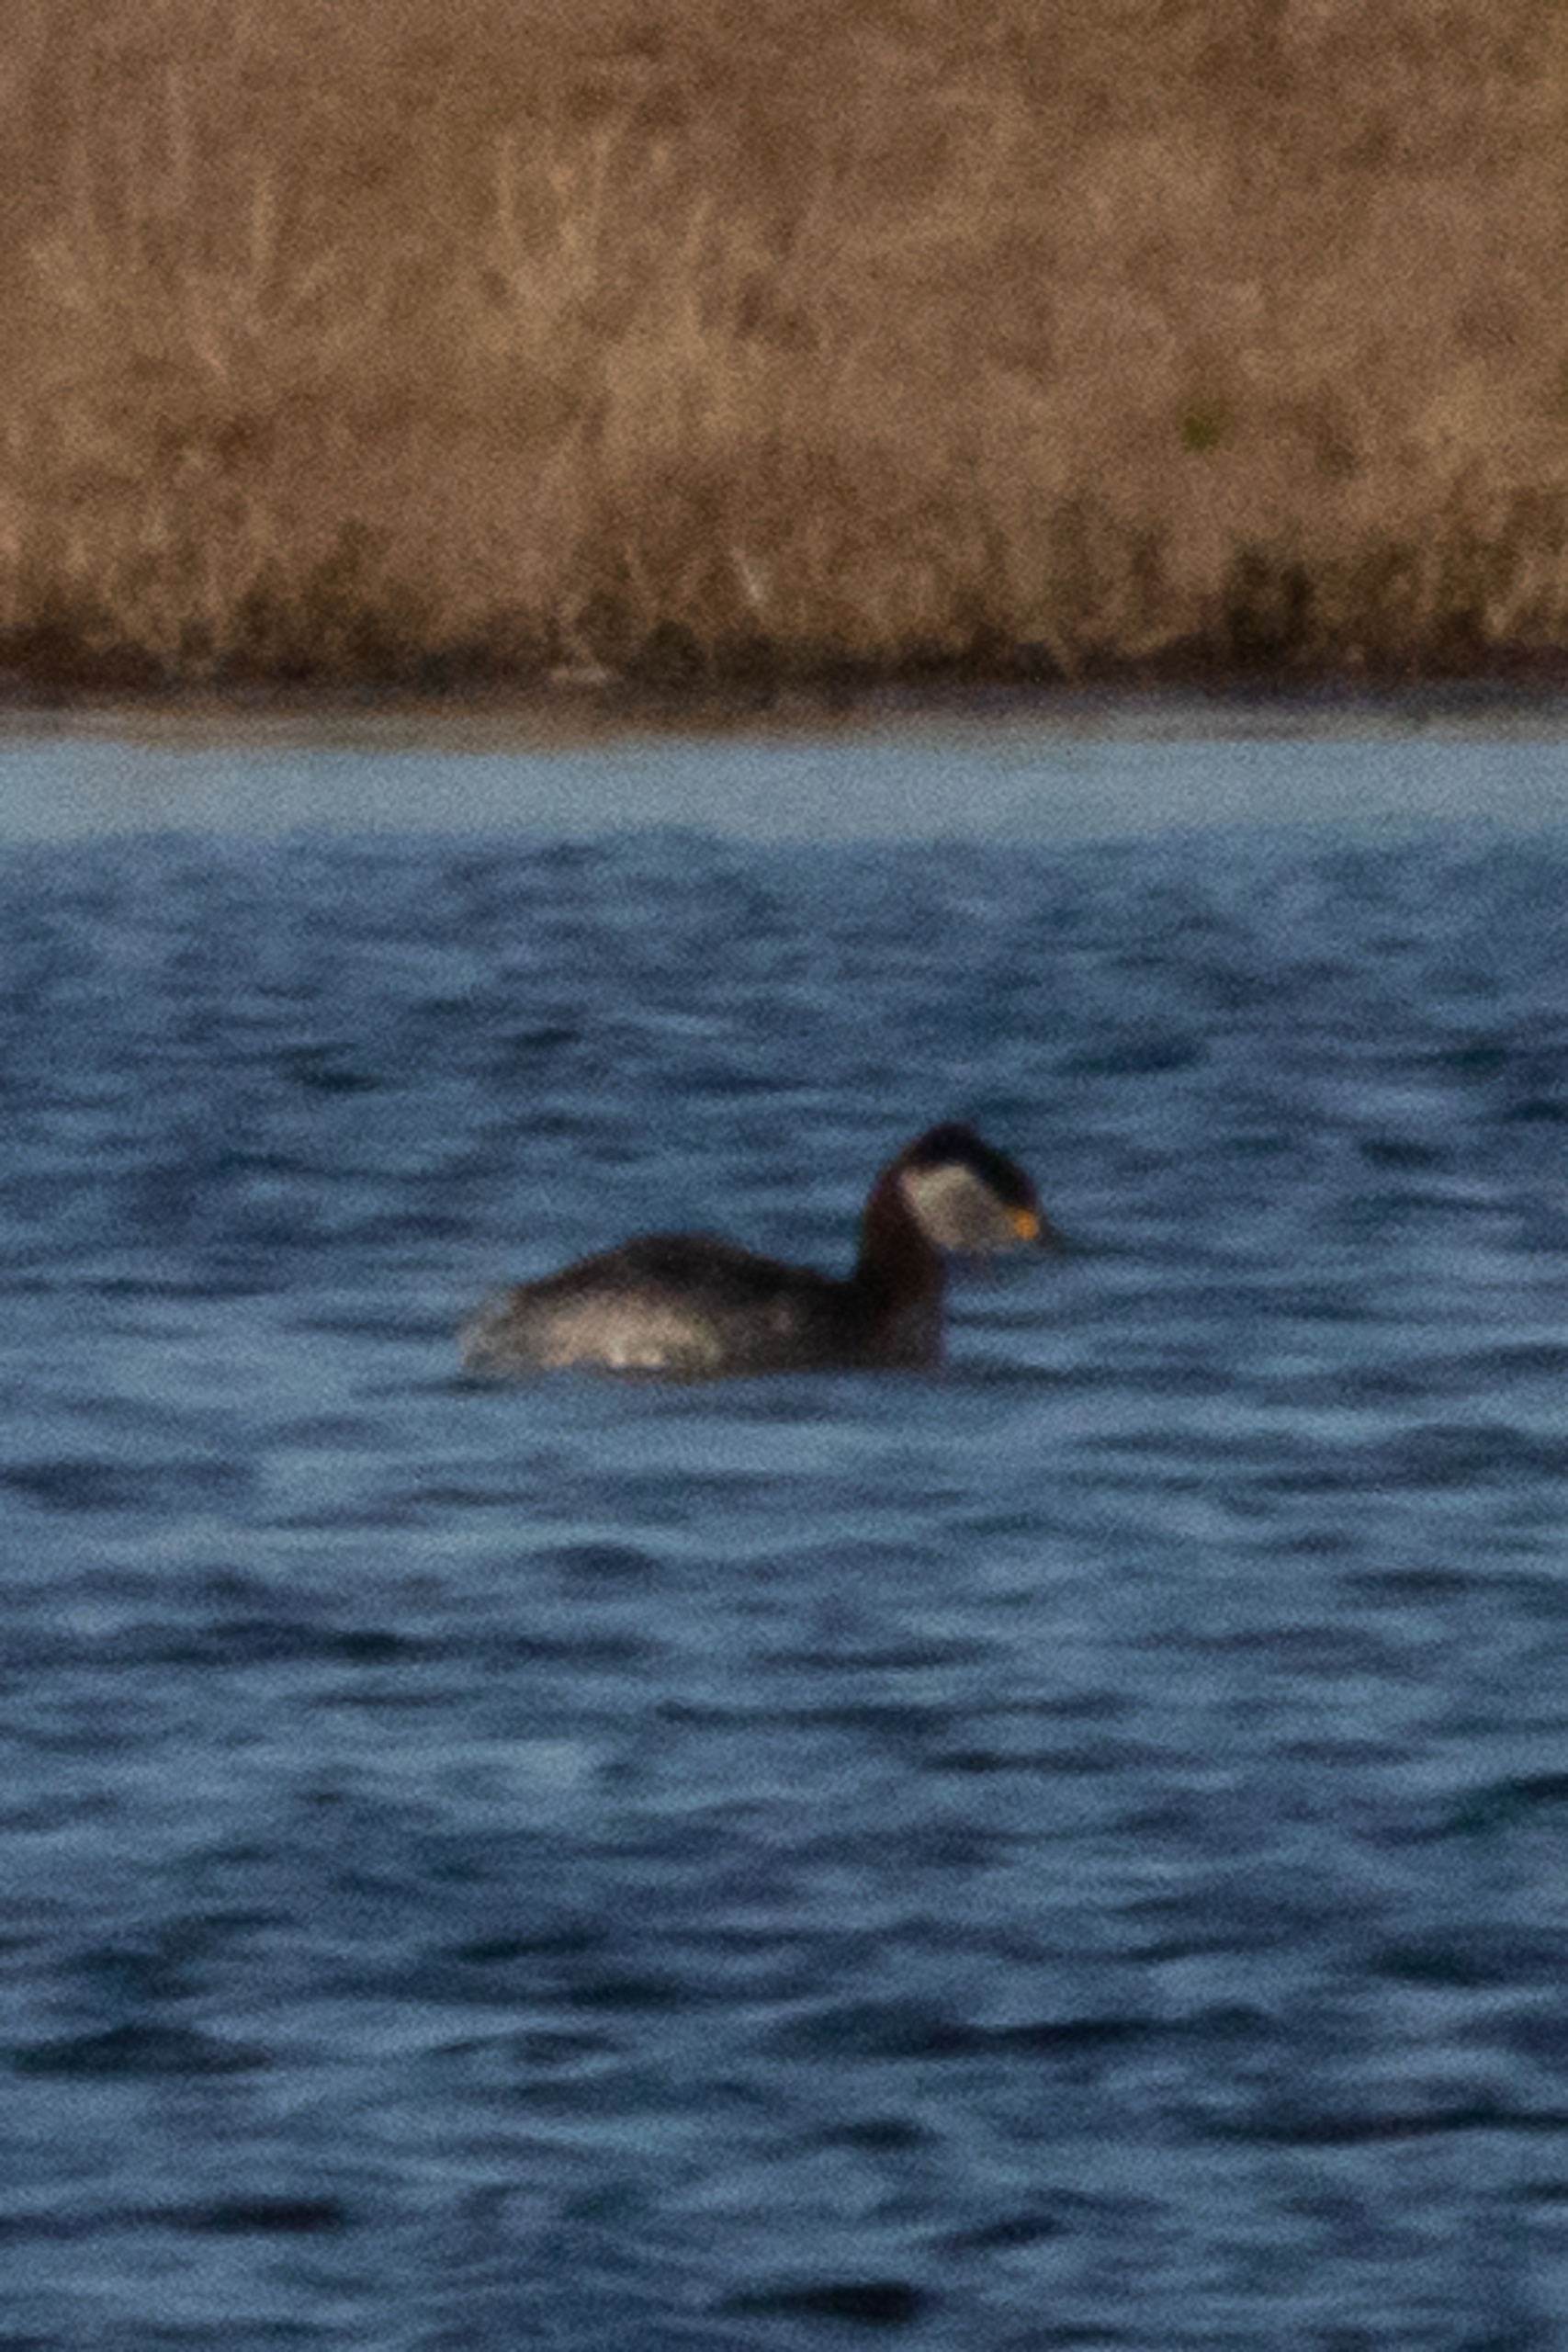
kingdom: Animalia
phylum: Chordata
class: Aves
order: Podicipediformes
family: Podicipedidae
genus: Podiceps
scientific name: Podiceps grisegena
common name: Gråstrubet lappedykker
